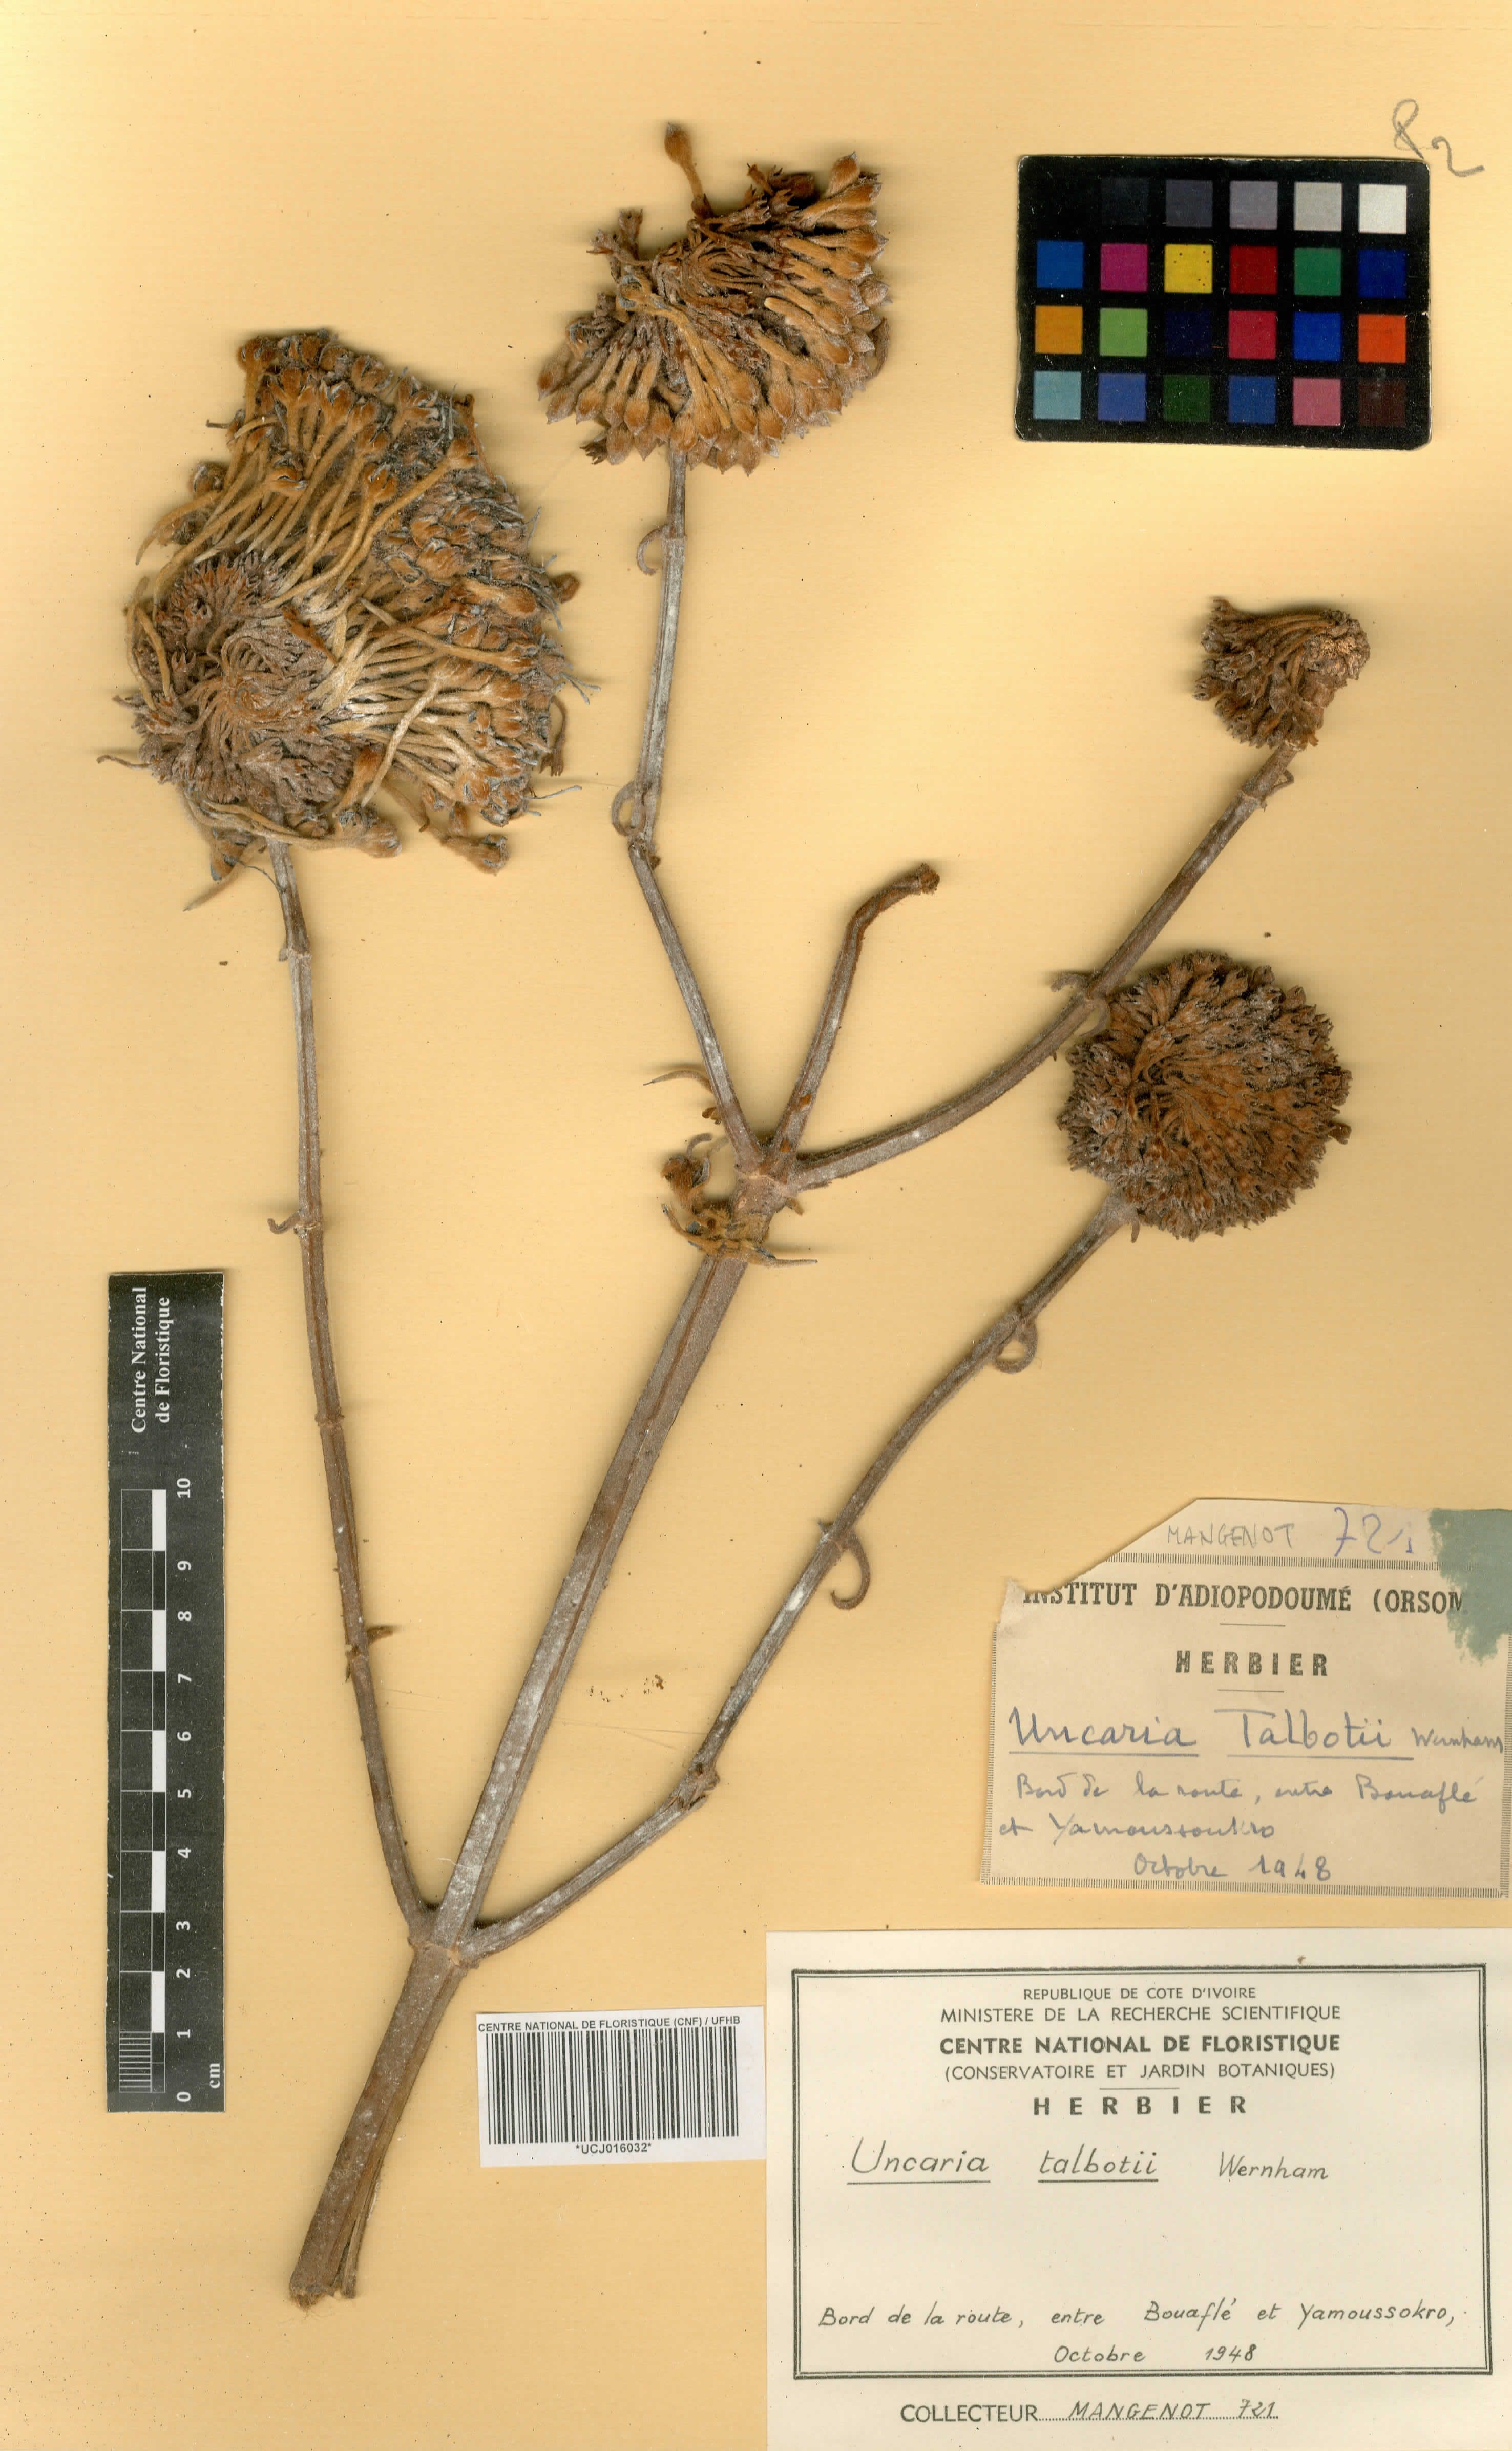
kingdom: Plantae
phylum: Tracheophyta
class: Magnoliopsida
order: Gentianales
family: Rubiaceae
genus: Uncaria
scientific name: Uncaria talbotii
